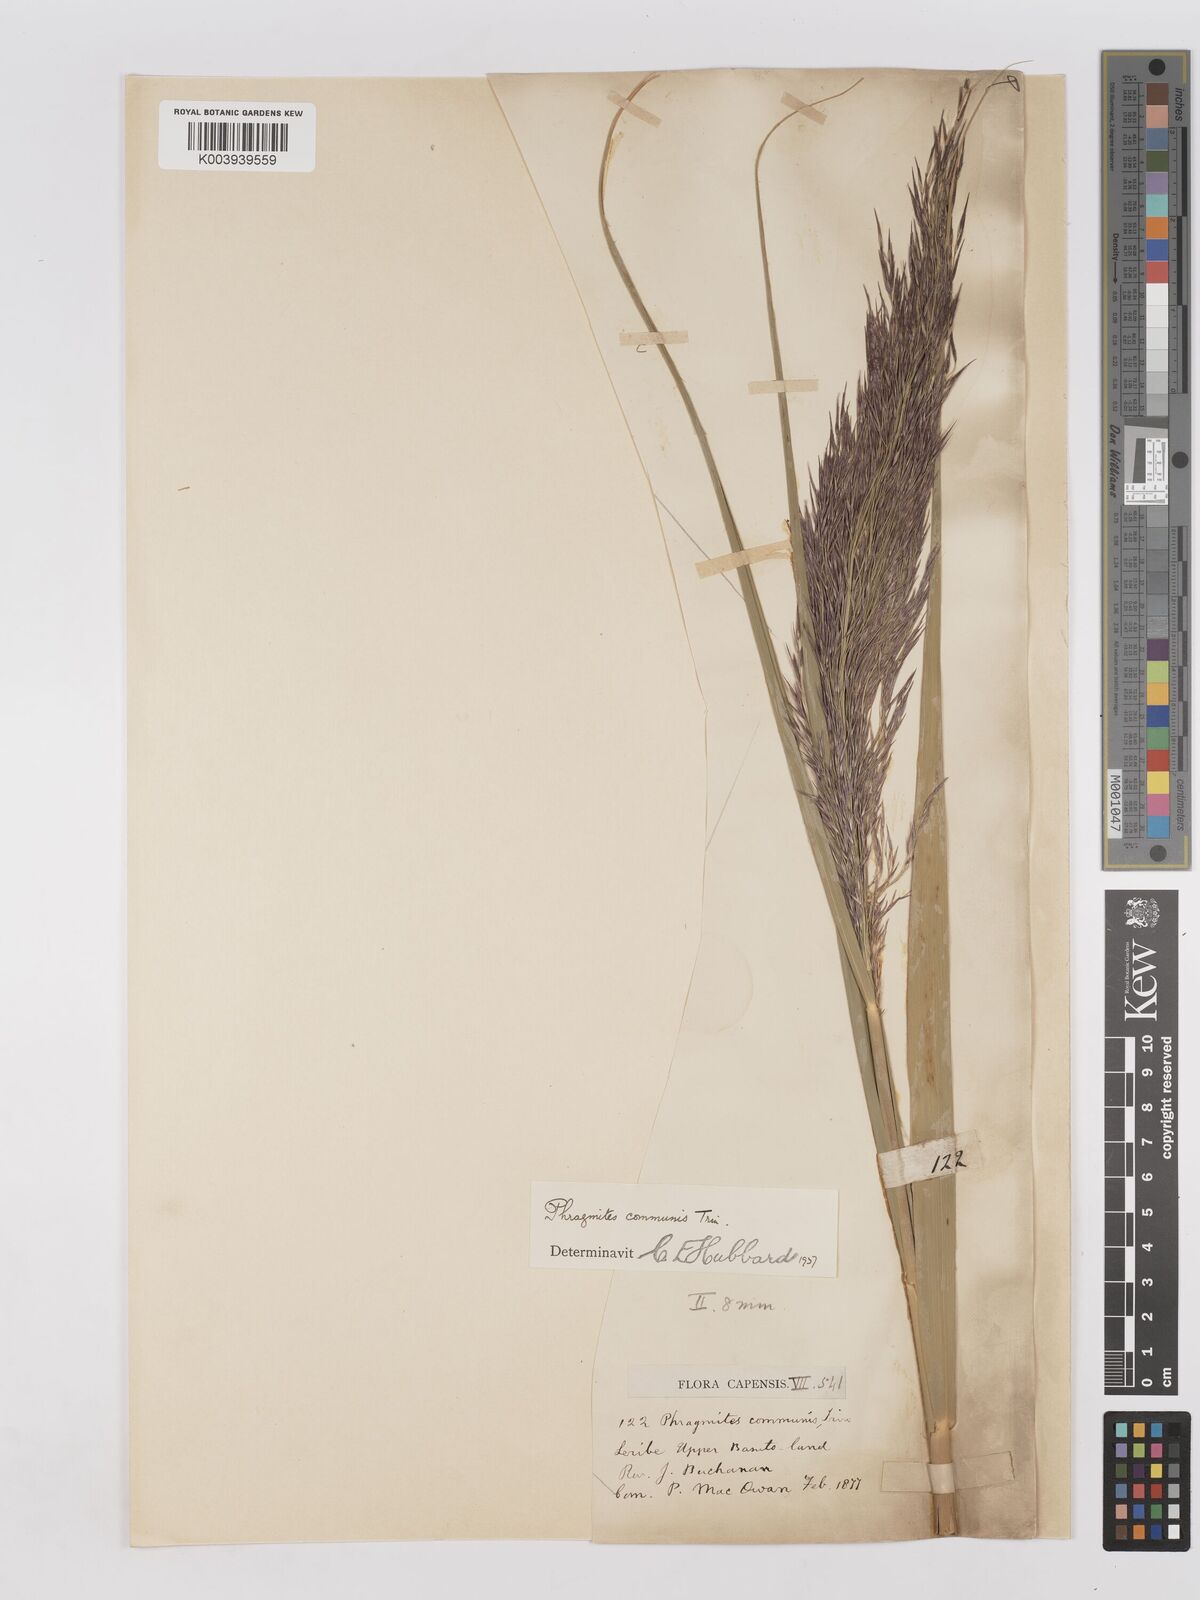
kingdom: Plantae
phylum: Tracheophyta
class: Liliopsida
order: Poales
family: Poaceae
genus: Phragmites
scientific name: Phragmites australis
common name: Common reed
